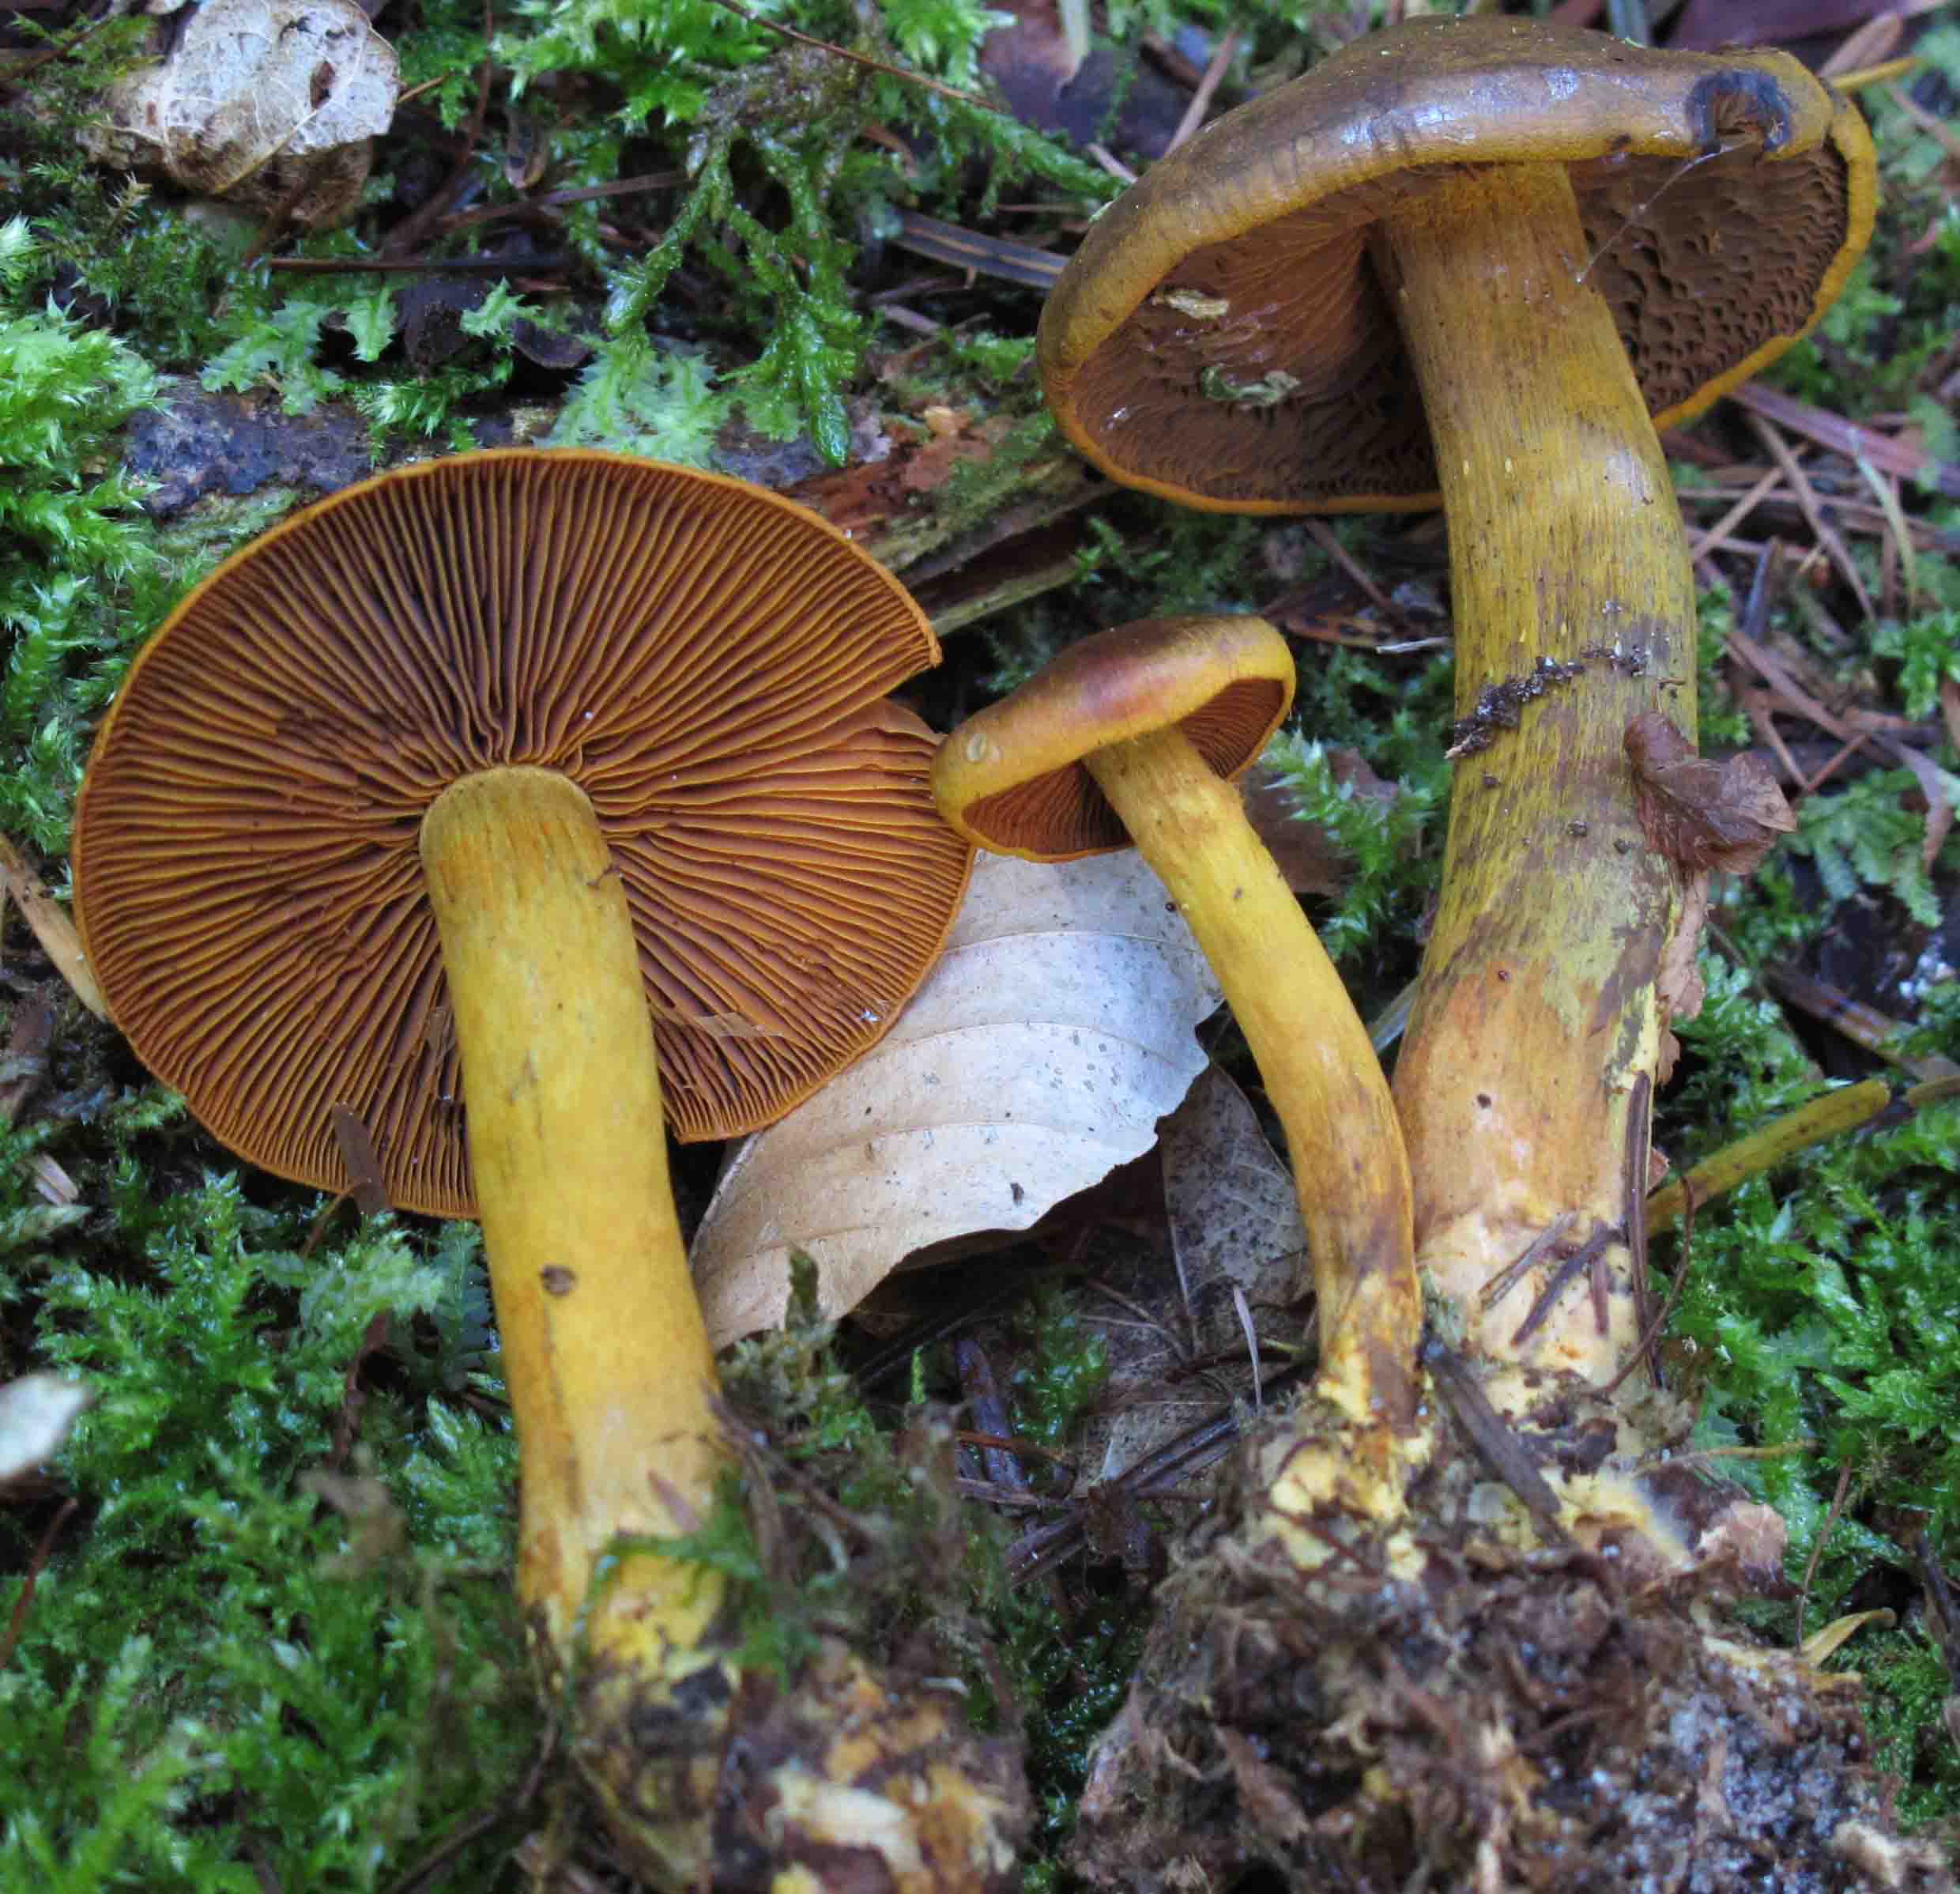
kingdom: Fungi
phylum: Basidiomycota
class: Agaricomycetes
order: Agaricales
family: Cortinariaceae
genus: Cortinarius
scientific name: Cortinarius malicorius
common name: grønkødet slørhat
